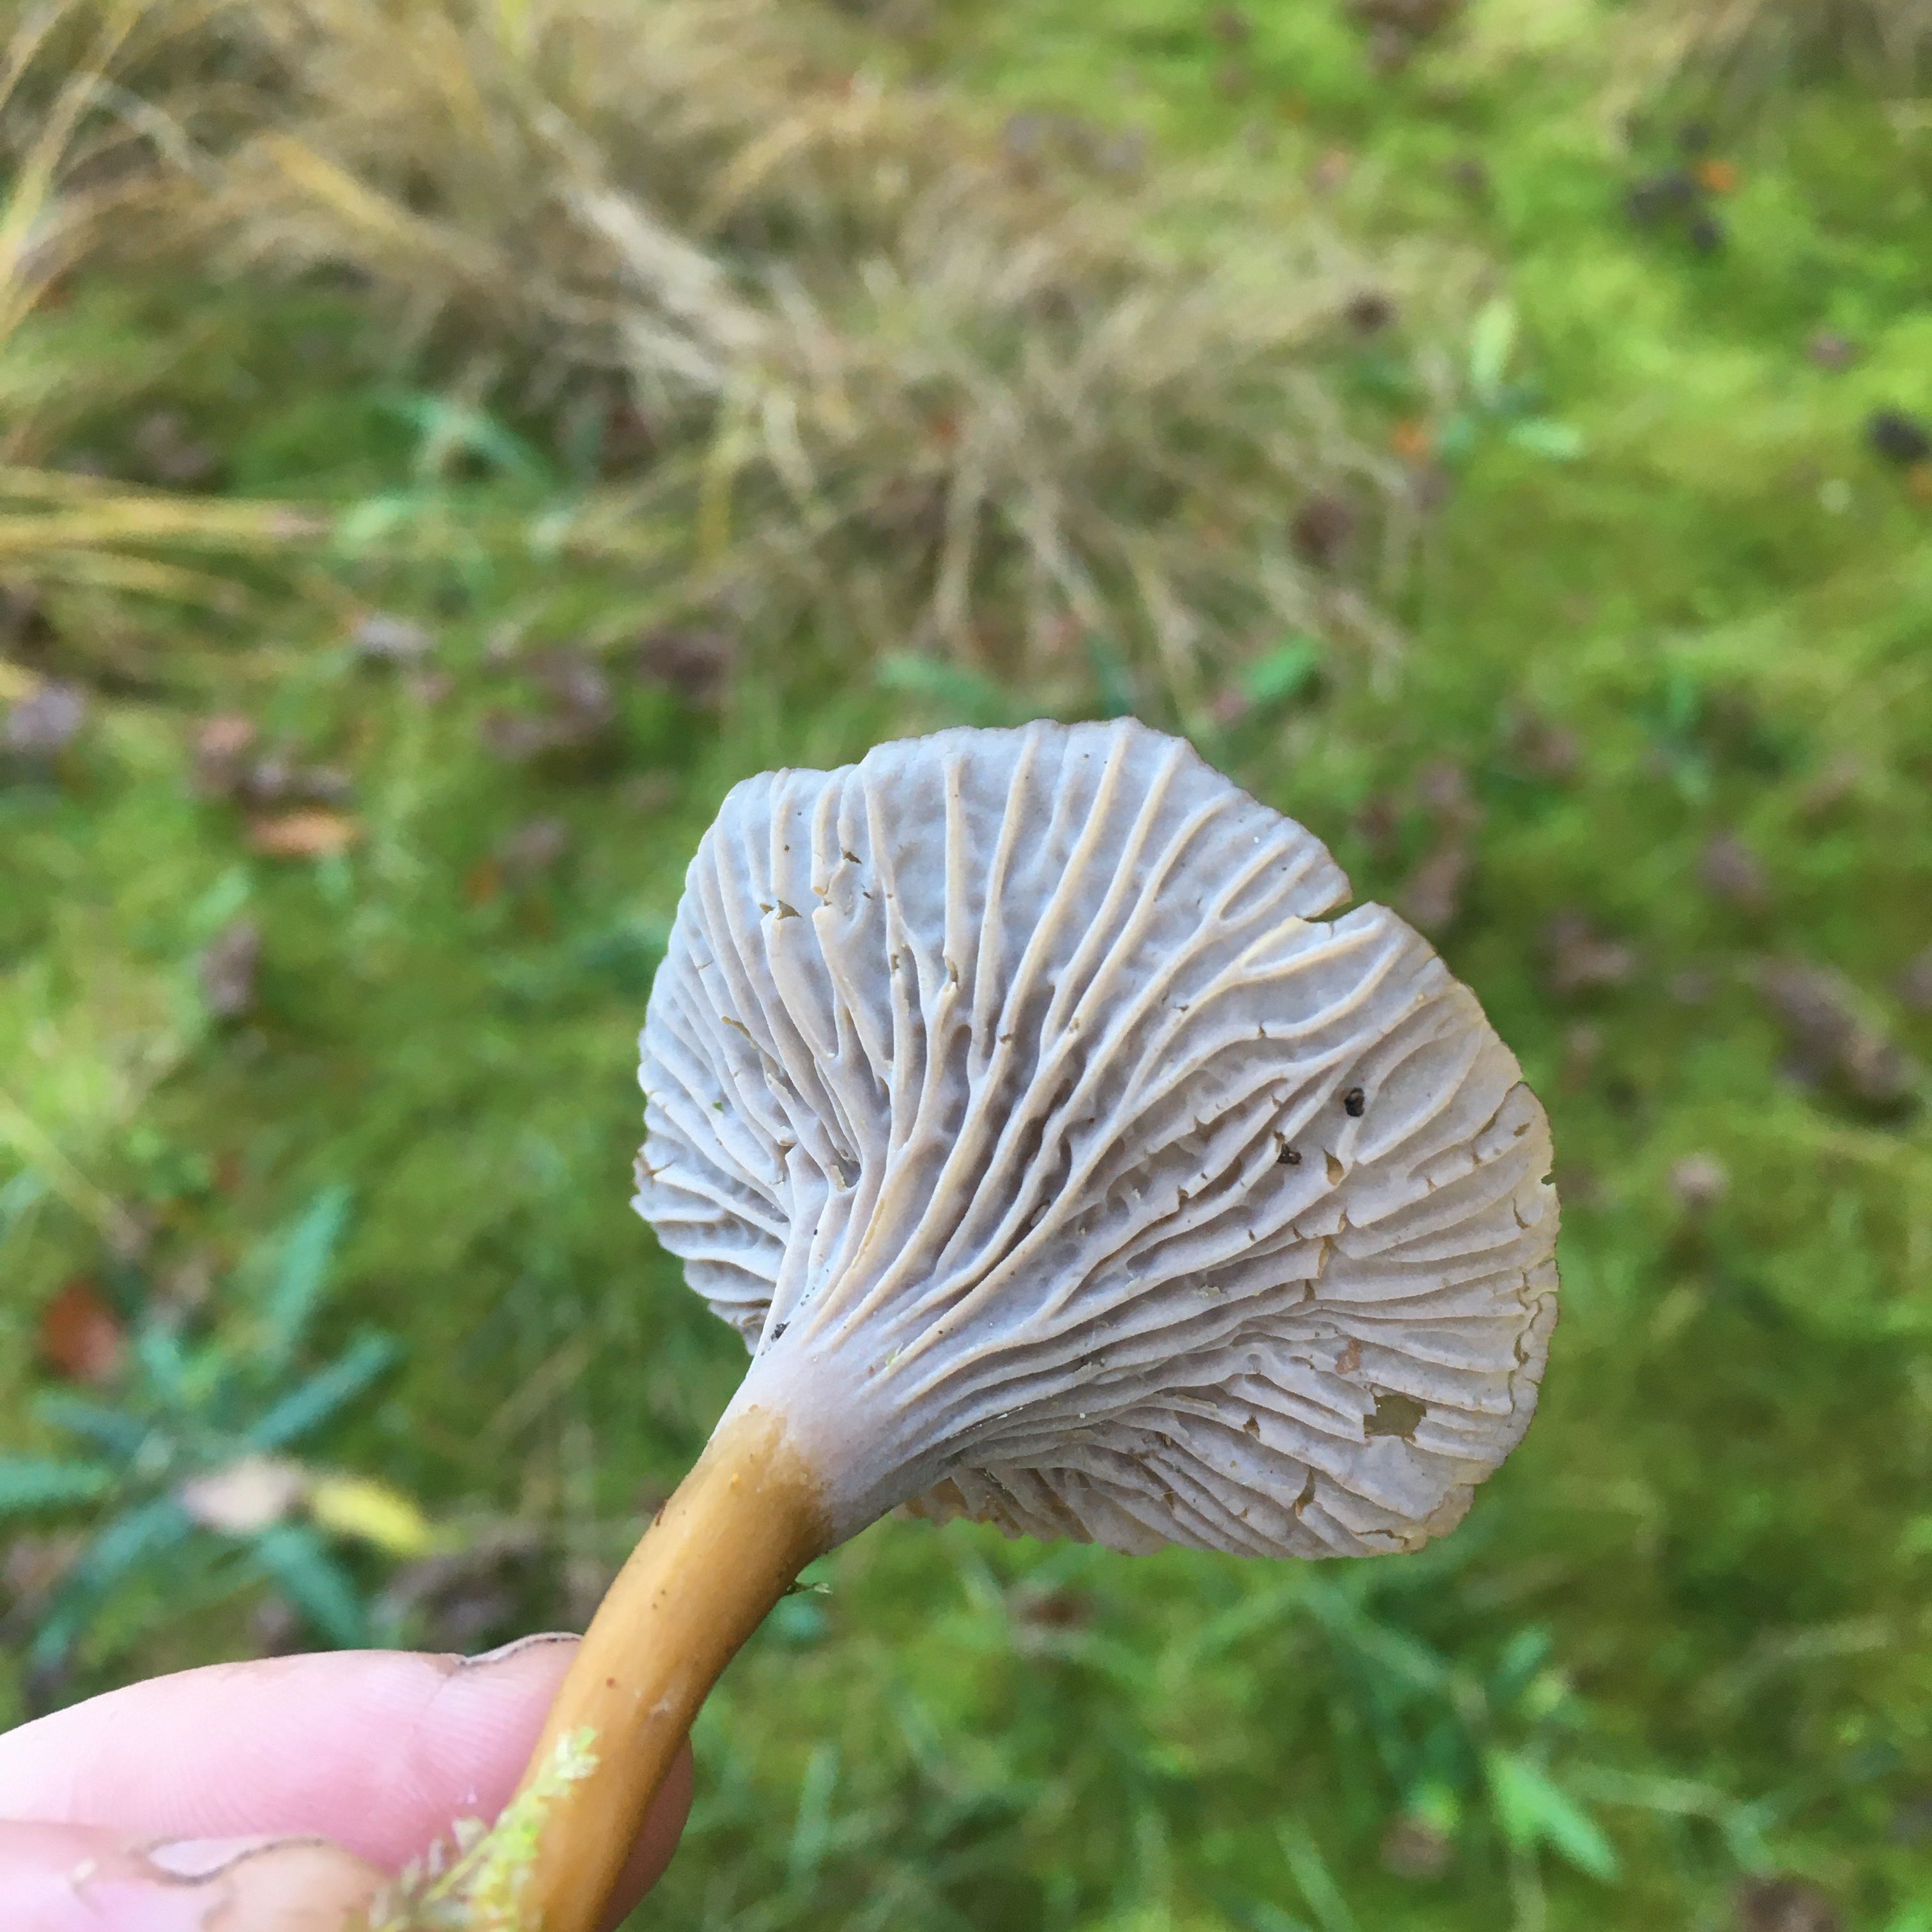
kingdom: Fungi
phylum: Basidiomycota
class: Agaricomycetes
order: Cantharellales
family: Hydnaceae
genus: Craterellus
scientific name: Craterellus tubaeformis
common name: tragt-kantarel
